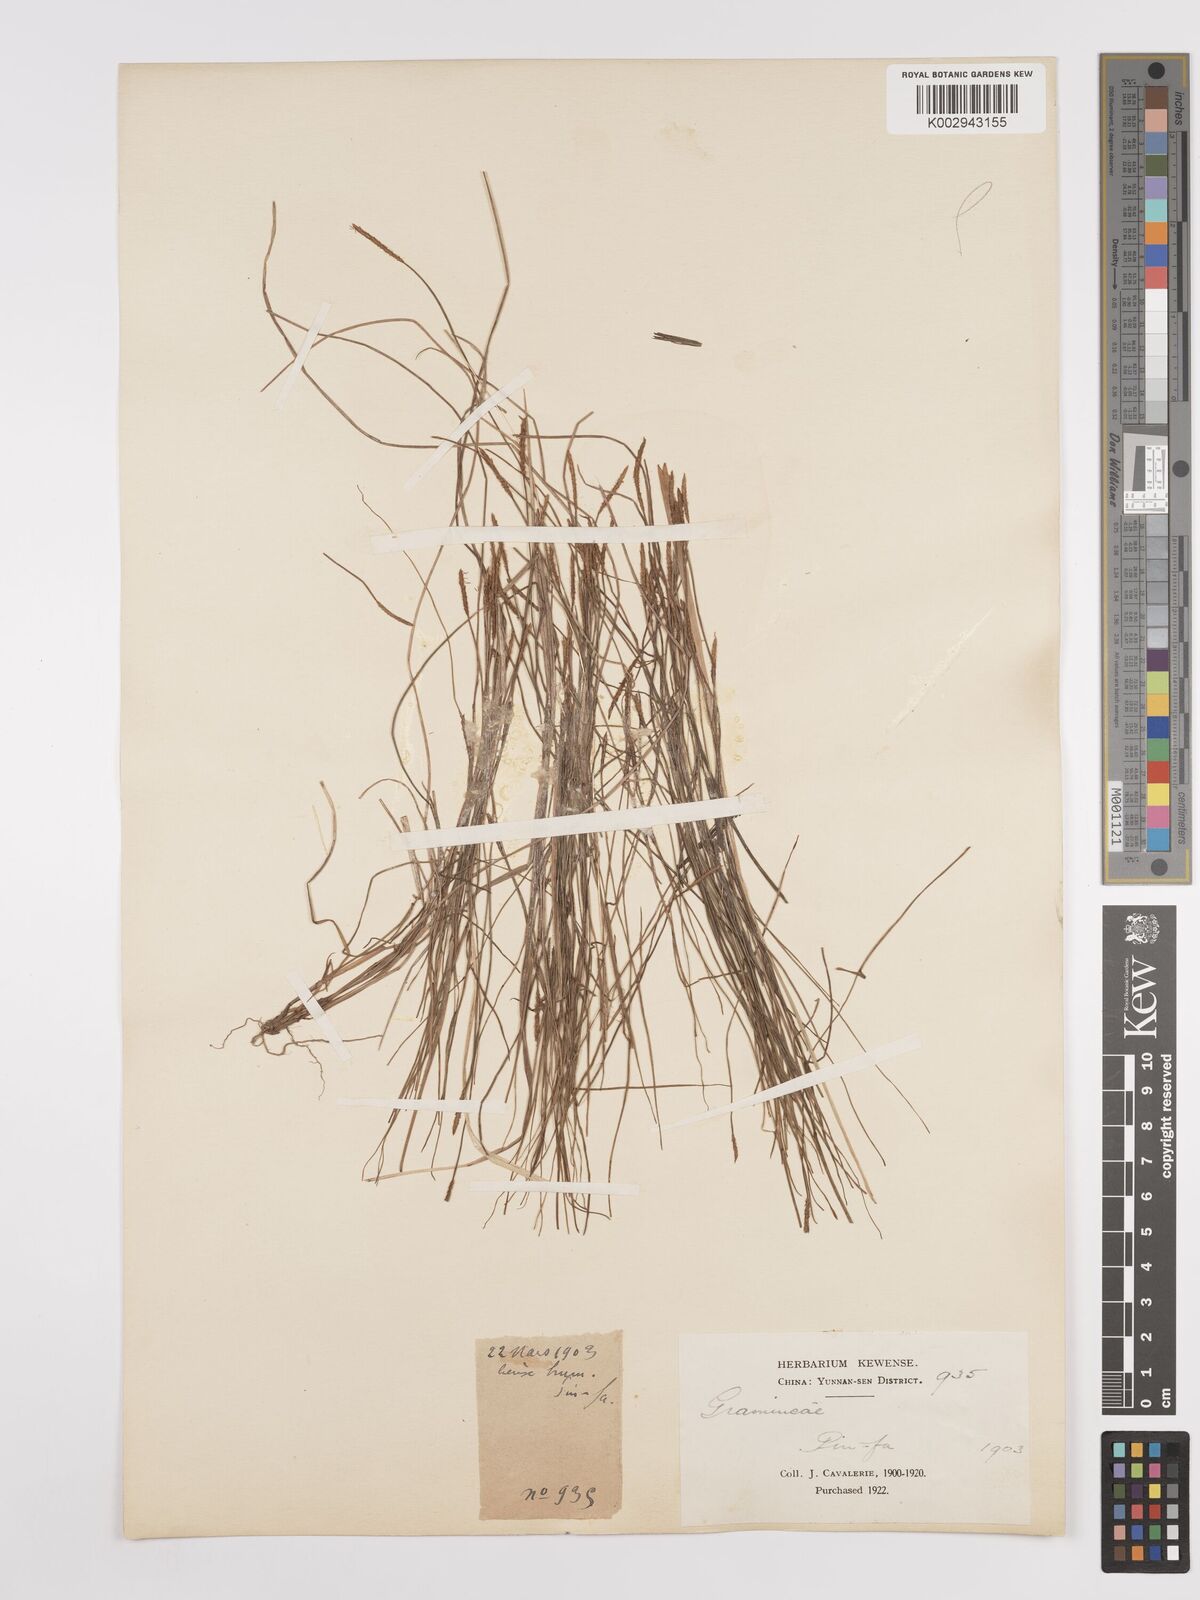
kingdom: Plantae
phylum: Tracheophyta
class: Liliopsida
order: Poales
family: Cyperaceae
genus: Carex
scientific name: Carex
